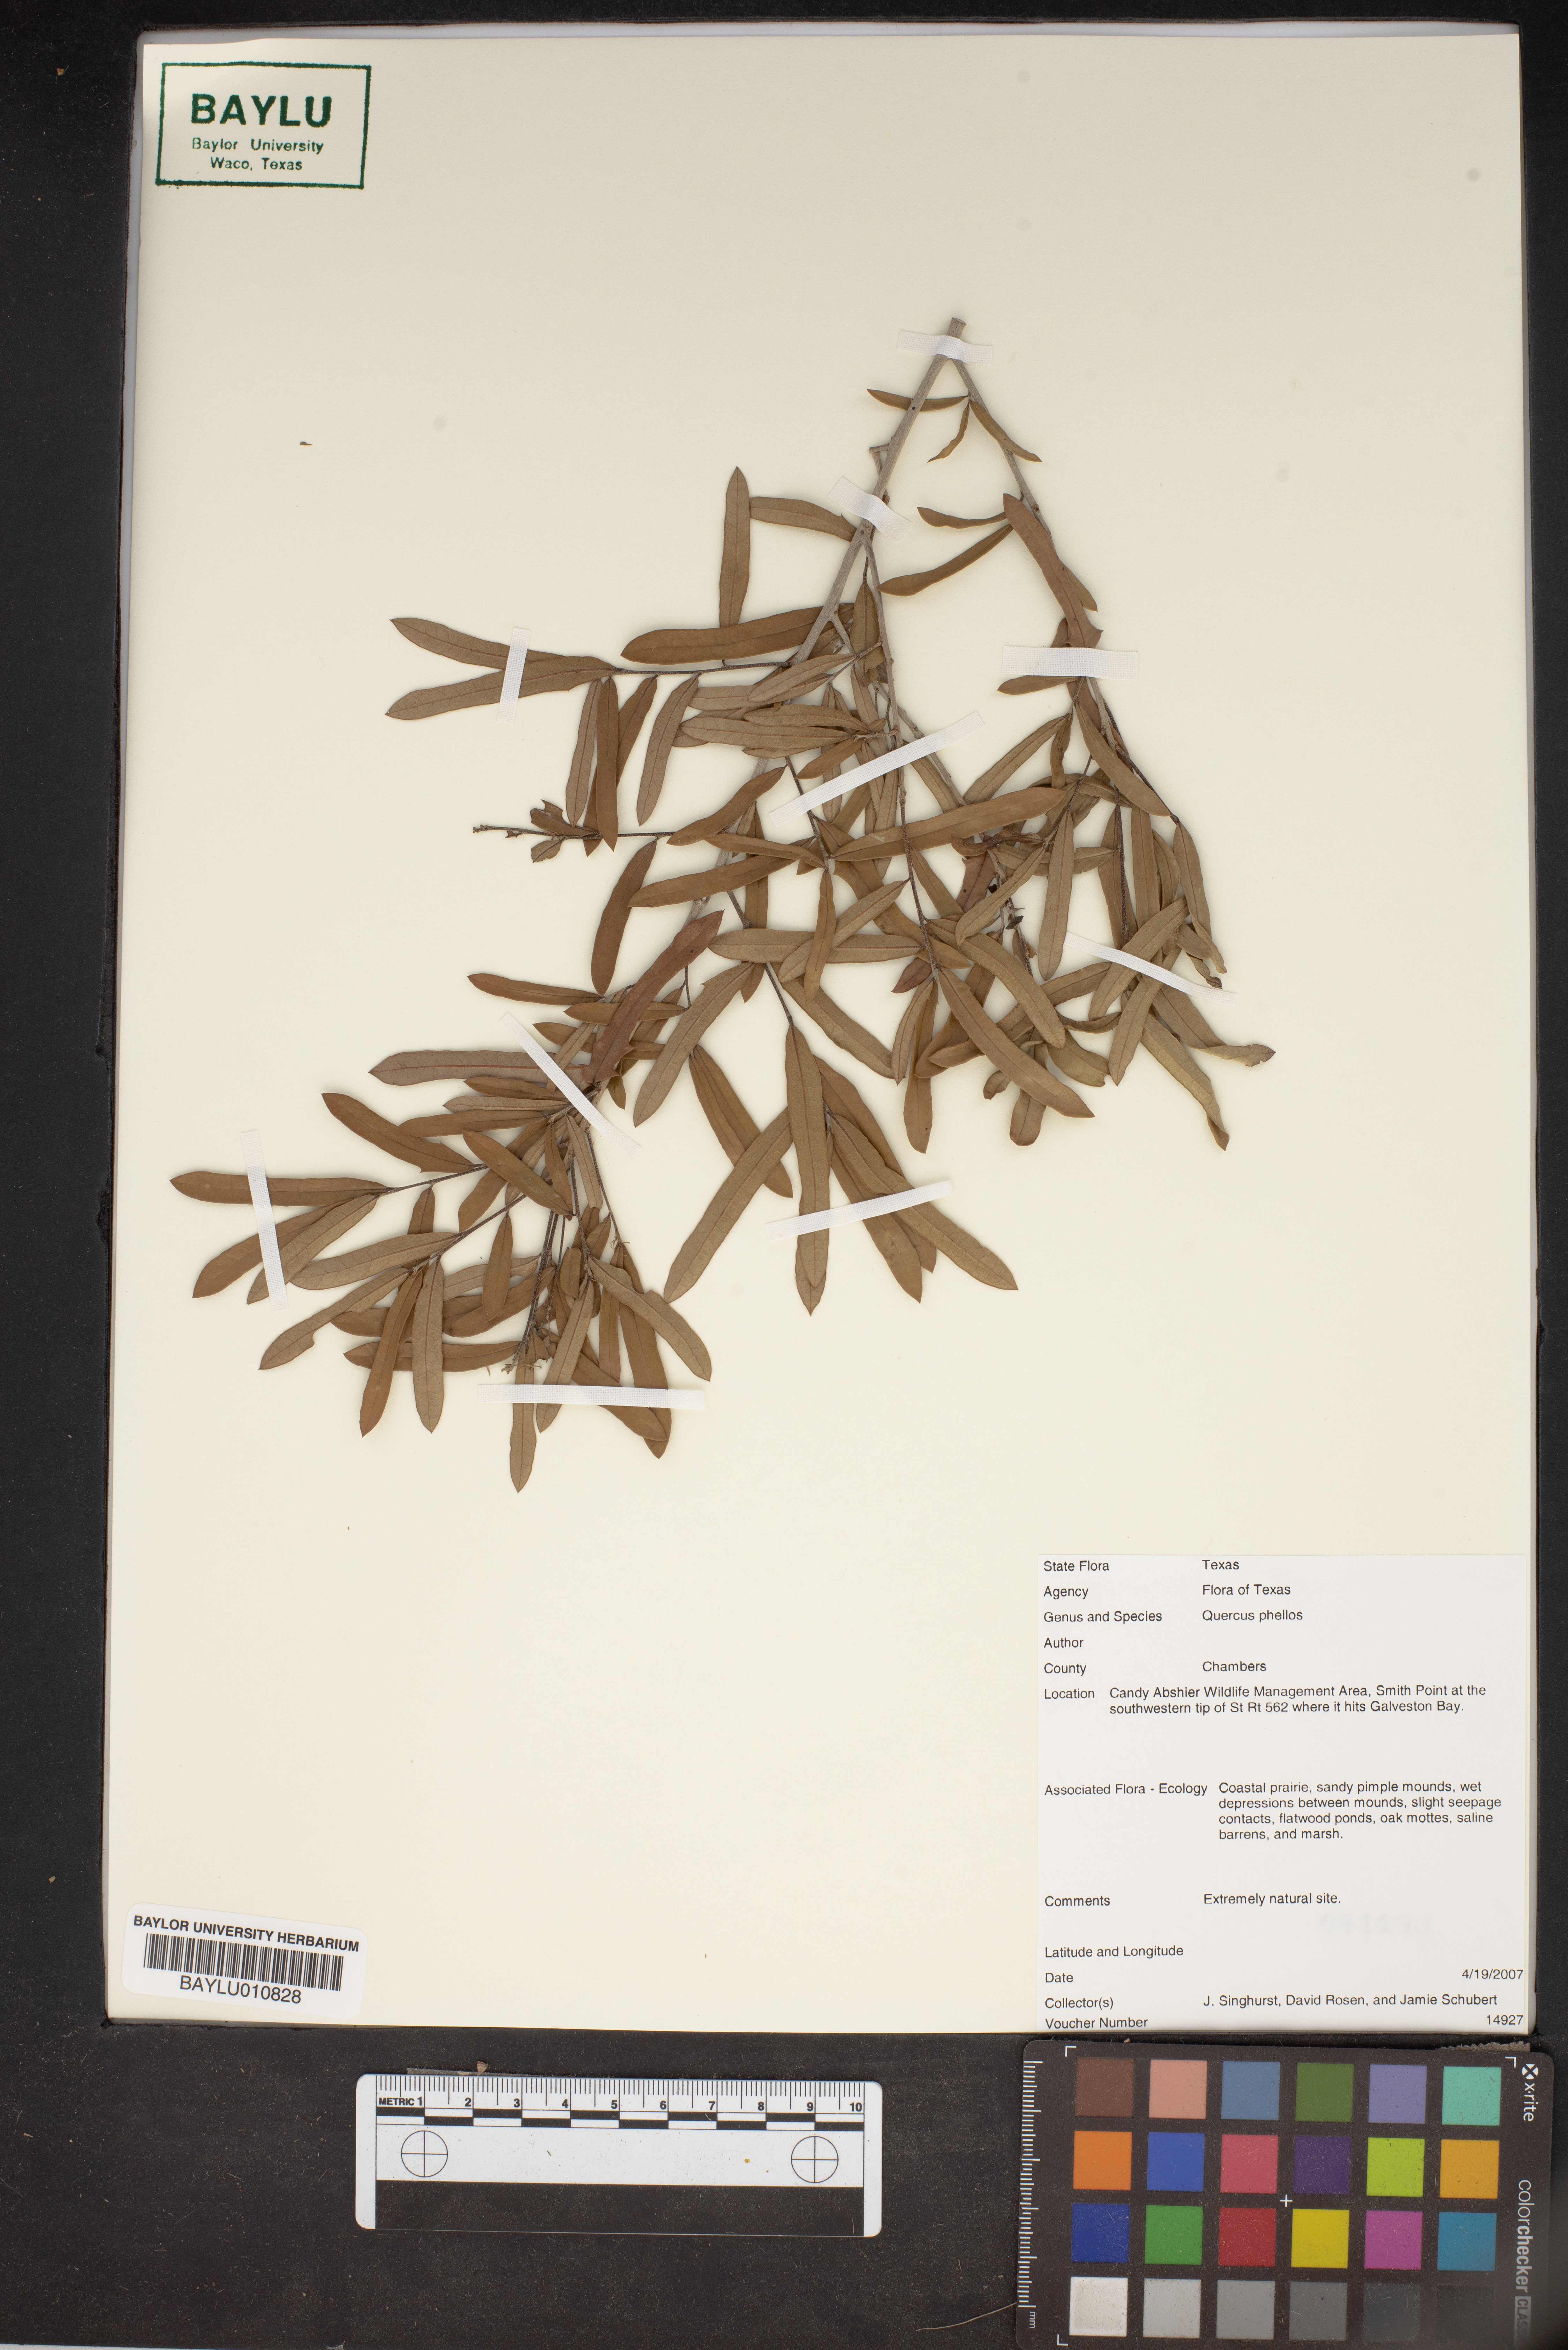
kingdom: Plantae
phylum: Tracheophyta
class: Magnoliopsida
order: Fagales
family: Fagaceae
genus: Quercus
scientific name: Quercus phellos
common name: Willow oak
